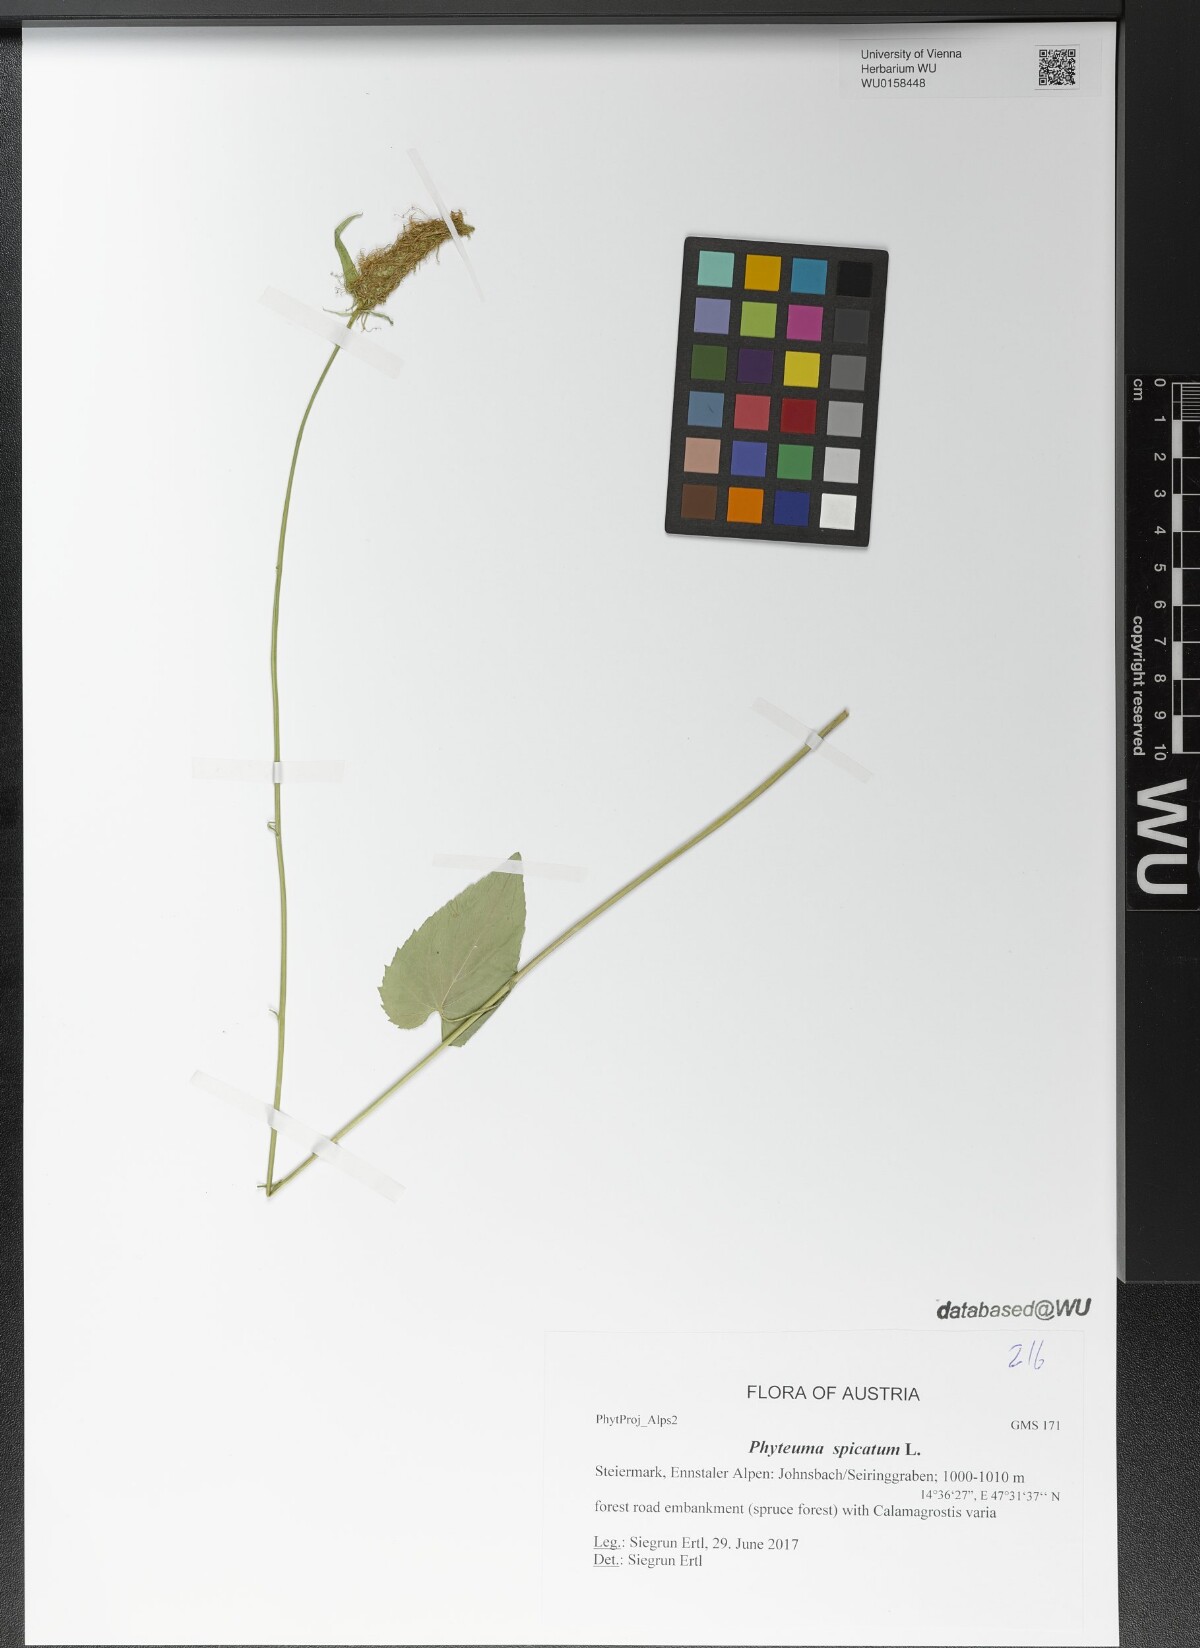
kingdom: Plantae
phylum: Tracheophyta
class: Magnoliopsida
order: Asterales
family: Campanulaceae
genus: Phyteuma
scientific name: Phyteuma spicatum
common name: Spiked rampion
